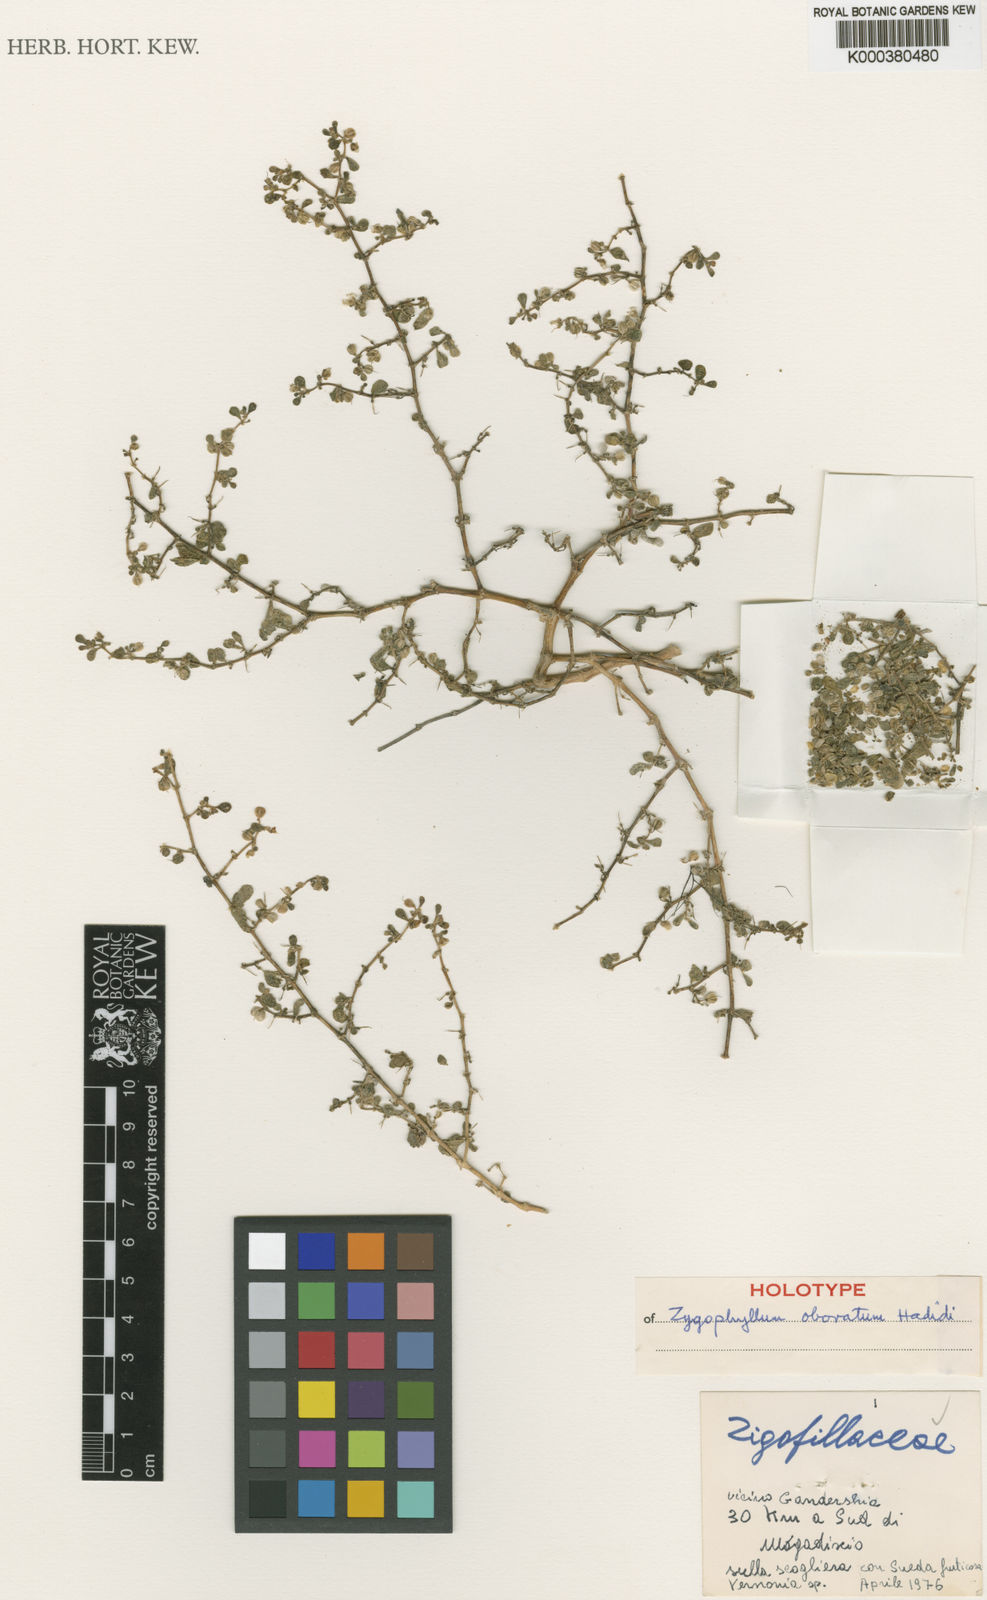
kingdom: Plantae
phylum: Tracheophyta
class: Magnoliopsida
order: Zygophyllales
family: Zygophyllaceae
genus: Zygophyllum
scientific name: Zygophyllum
